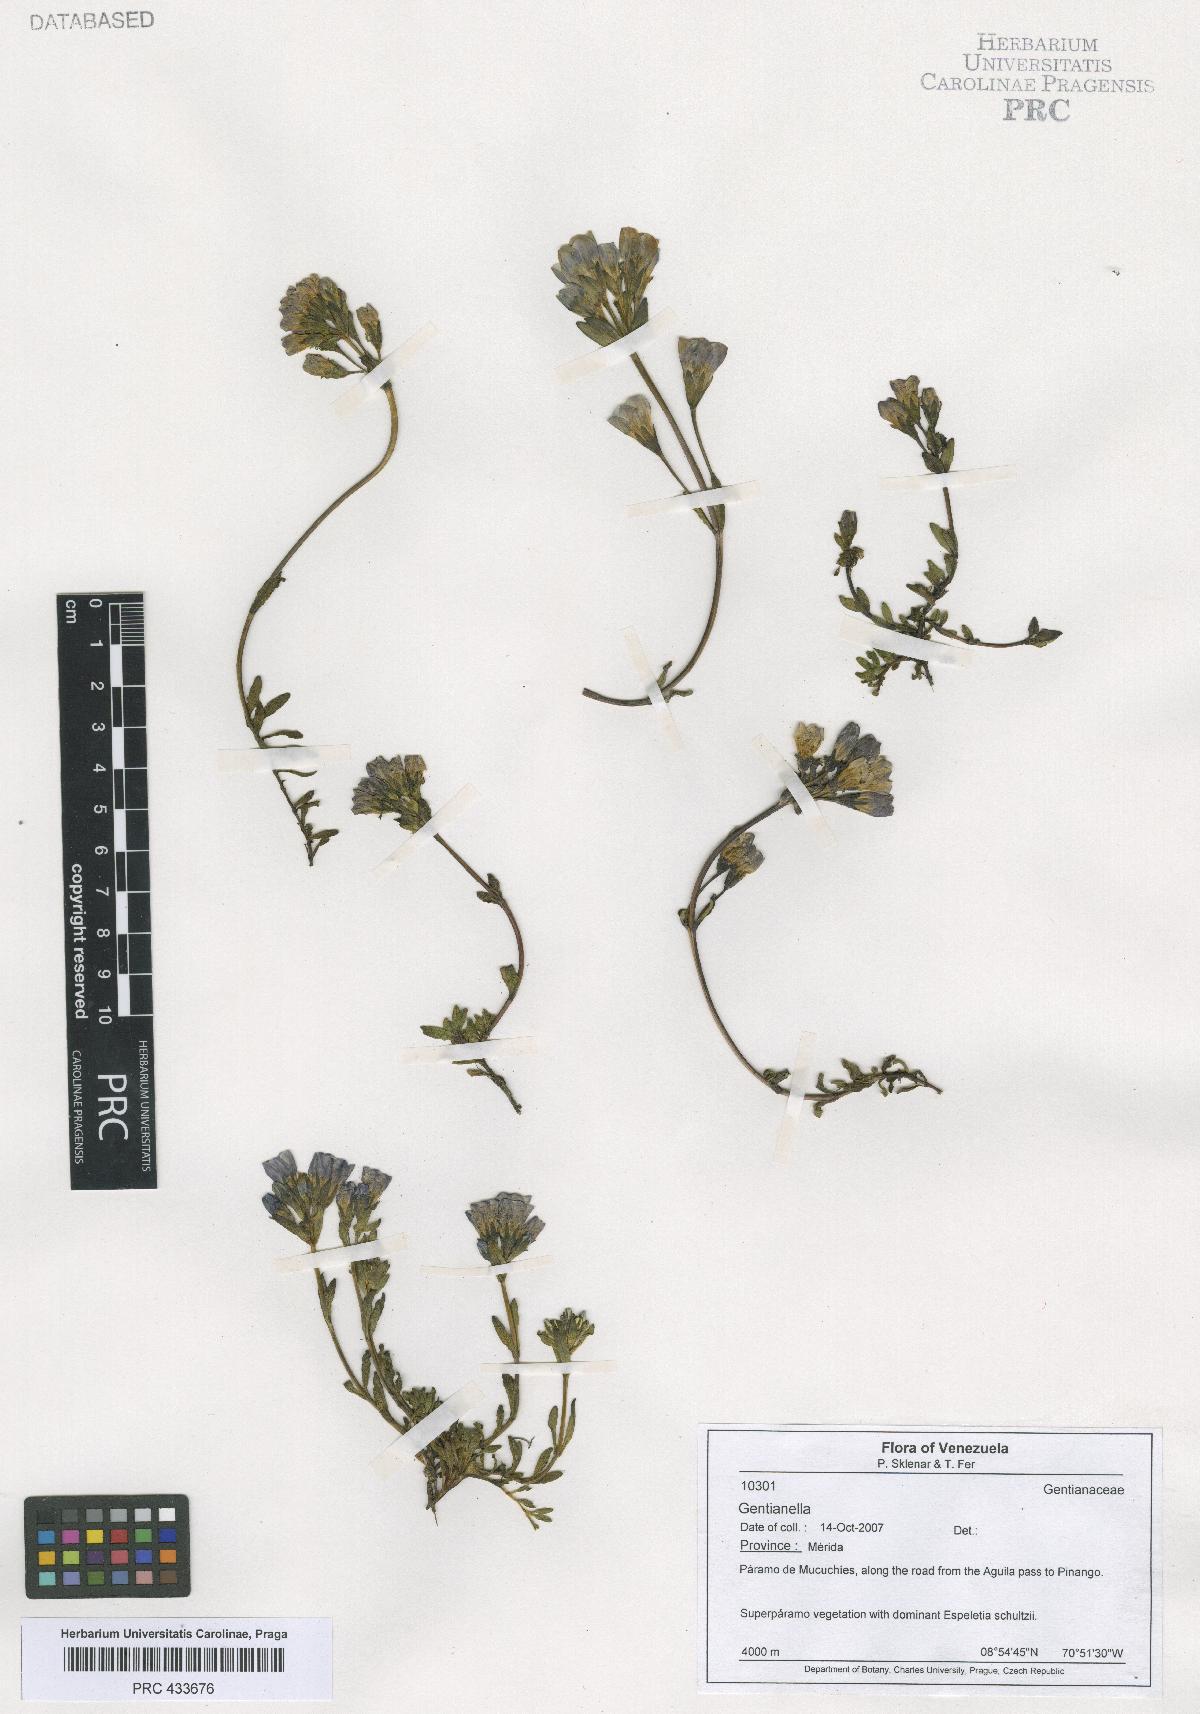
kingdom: Plantae
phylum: Tracheophyta
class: Magnoliopsida
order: Gentianales
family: Gentianaceae
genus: Gentianella
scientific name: Gentianella
